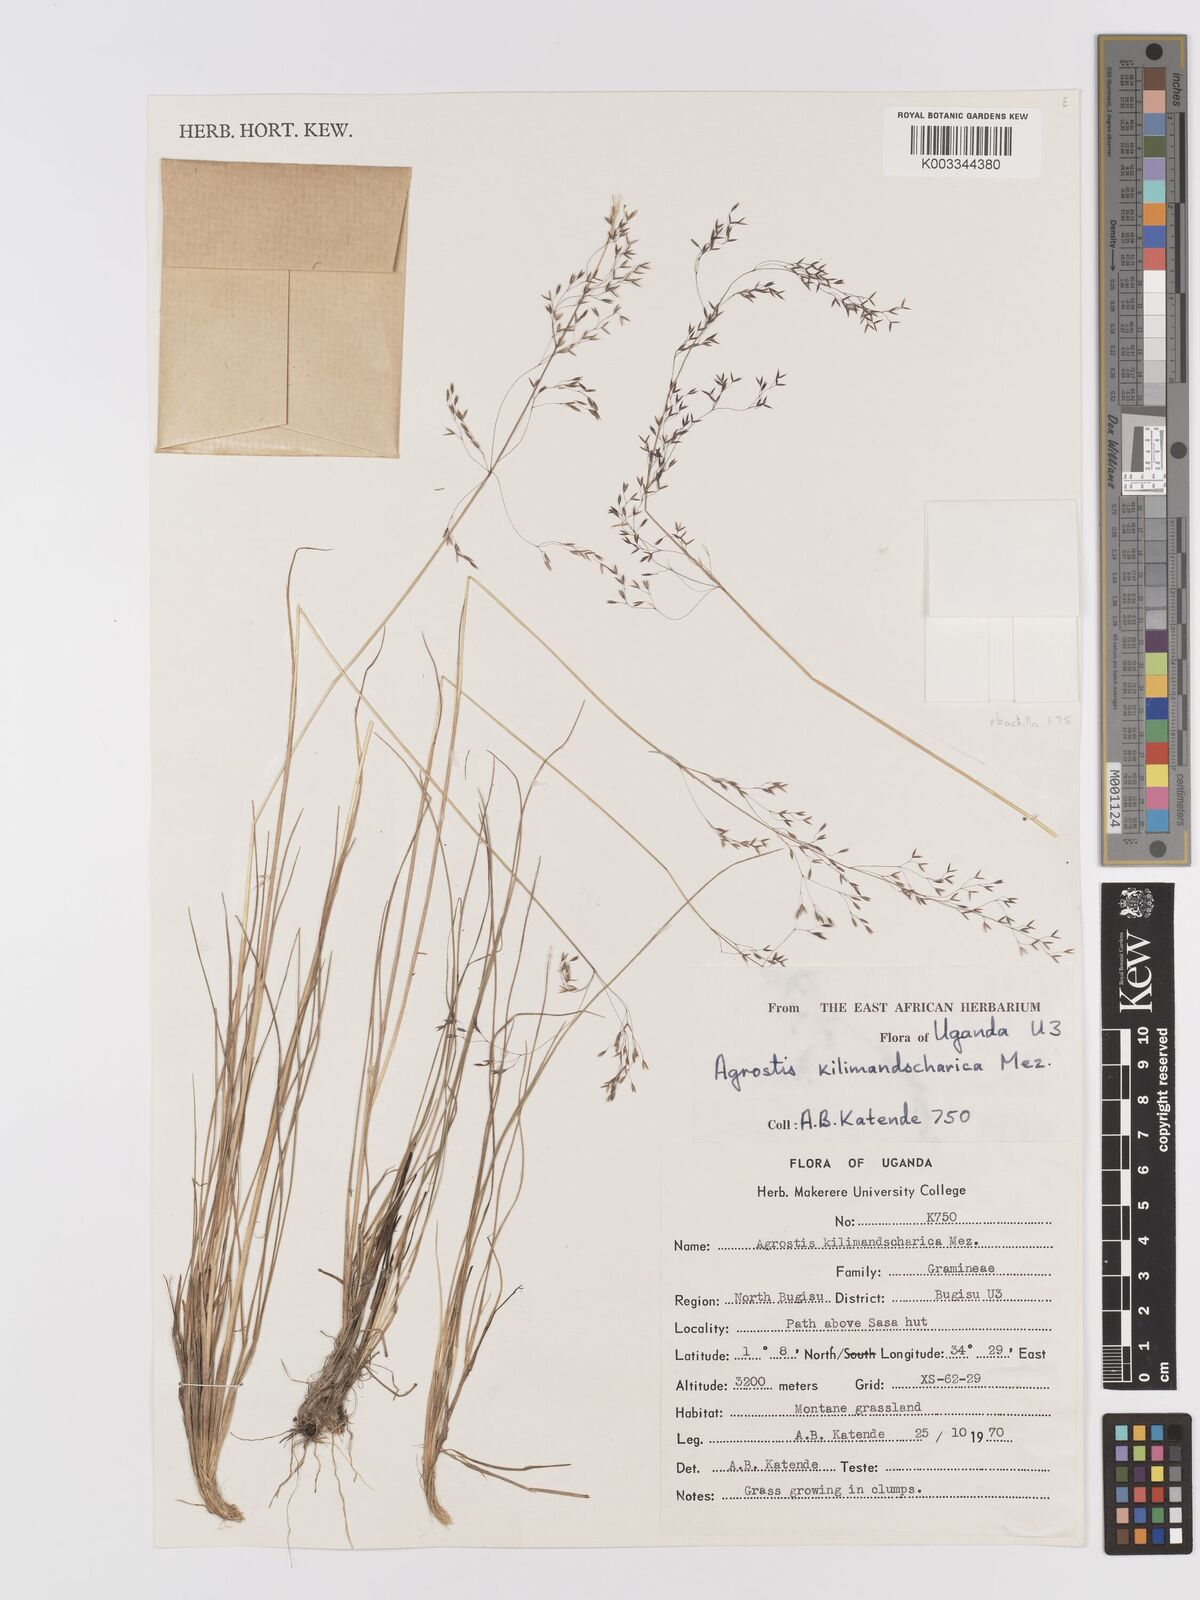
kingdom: Plantae
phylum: Tracheophyta
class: Liliopsida
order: Poales
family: Poaceae
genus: Agrostis
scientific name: Agrostis kilimandscharica
